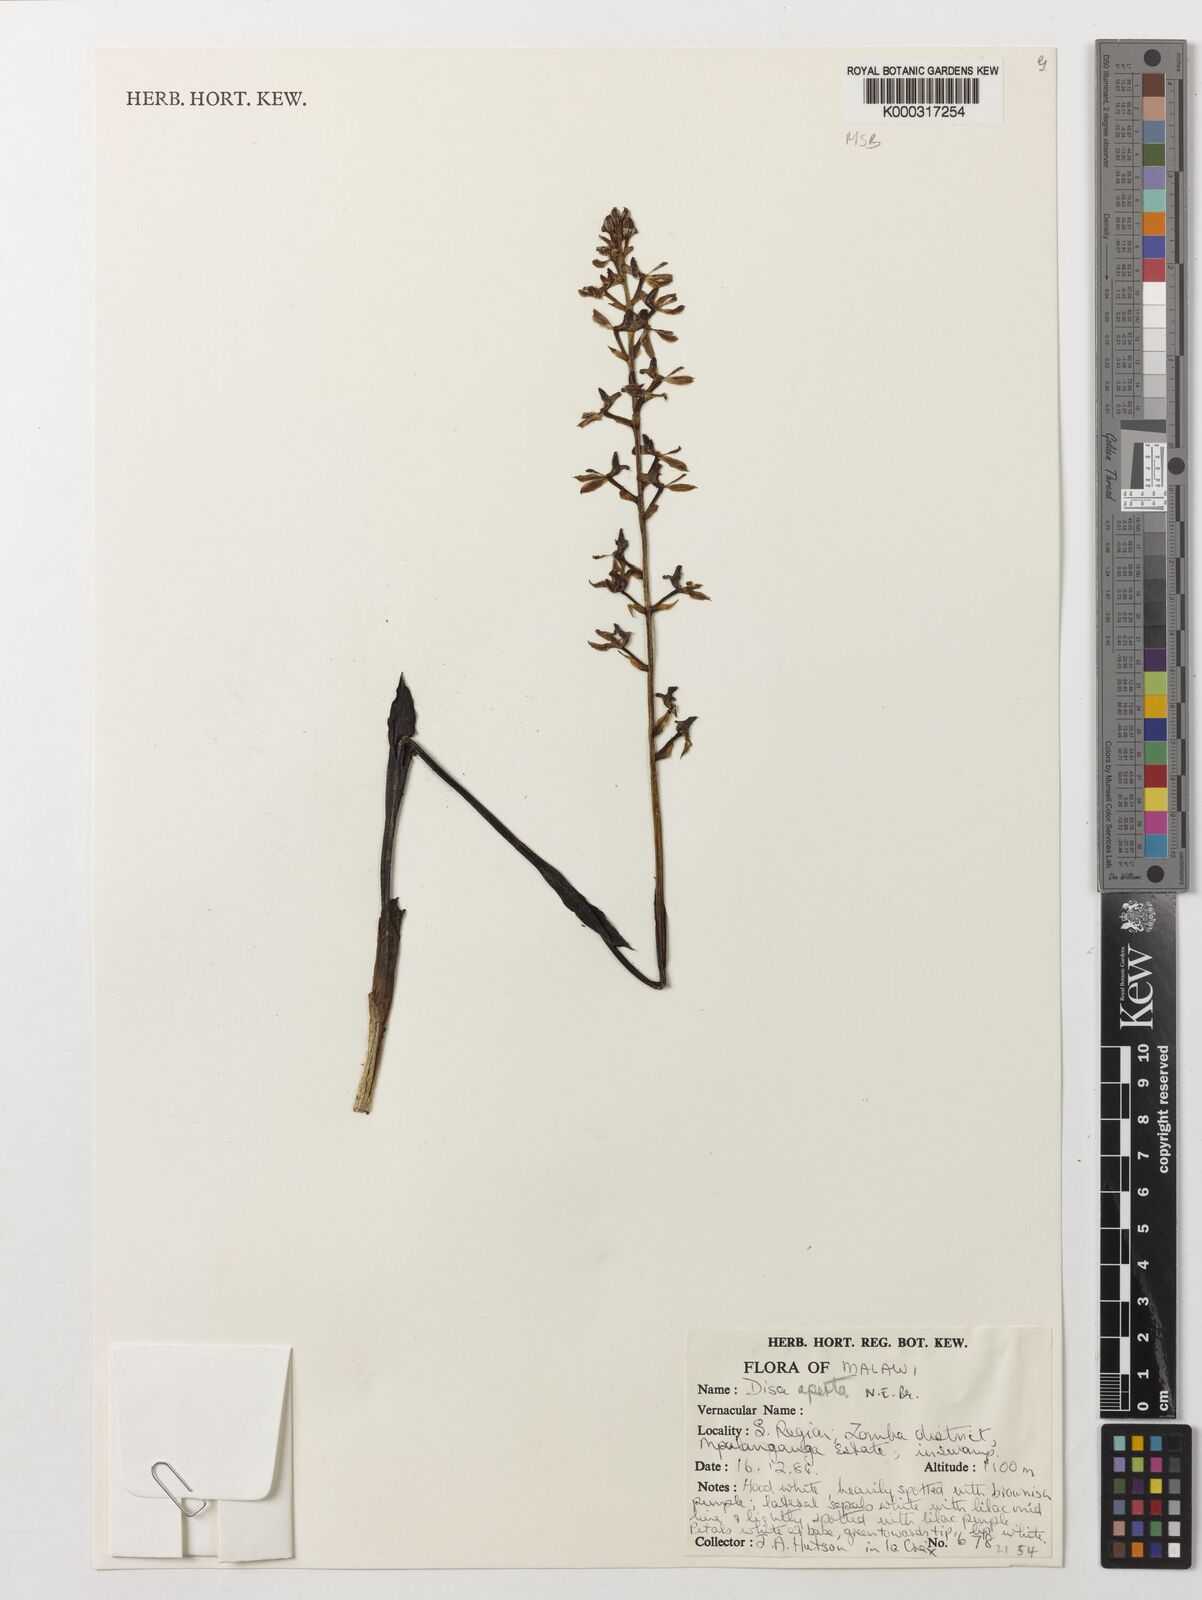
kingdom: Plantae
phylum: Tracheophyta
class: Liliopsida
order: Asparagales
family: Orchidaceae
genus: Disa
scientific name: Disa aperta
